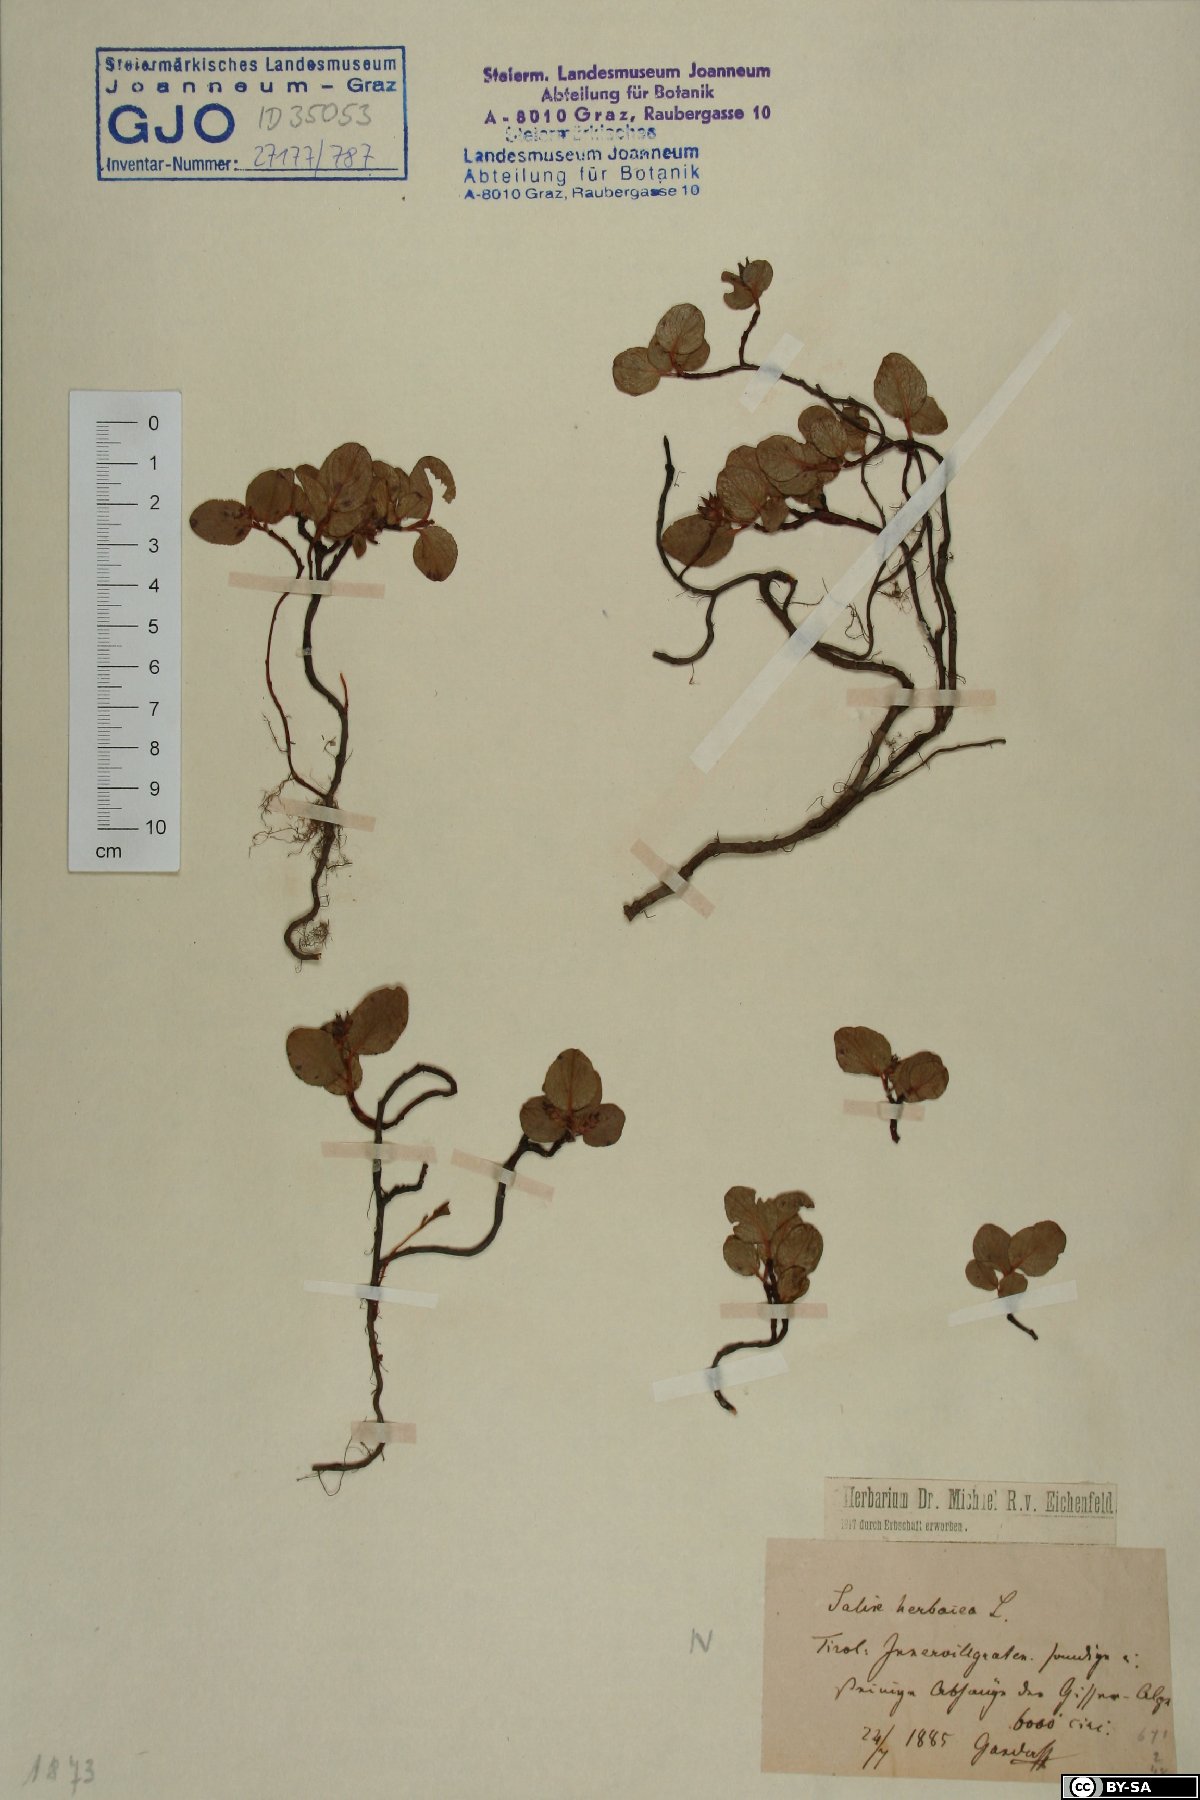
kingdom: Plantae
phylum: Tracheophyta
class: Magnoliopsida
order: Malpighiales
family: Salicaceae
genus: Salix
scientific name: Salix herbacea
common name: Dwarf willow
